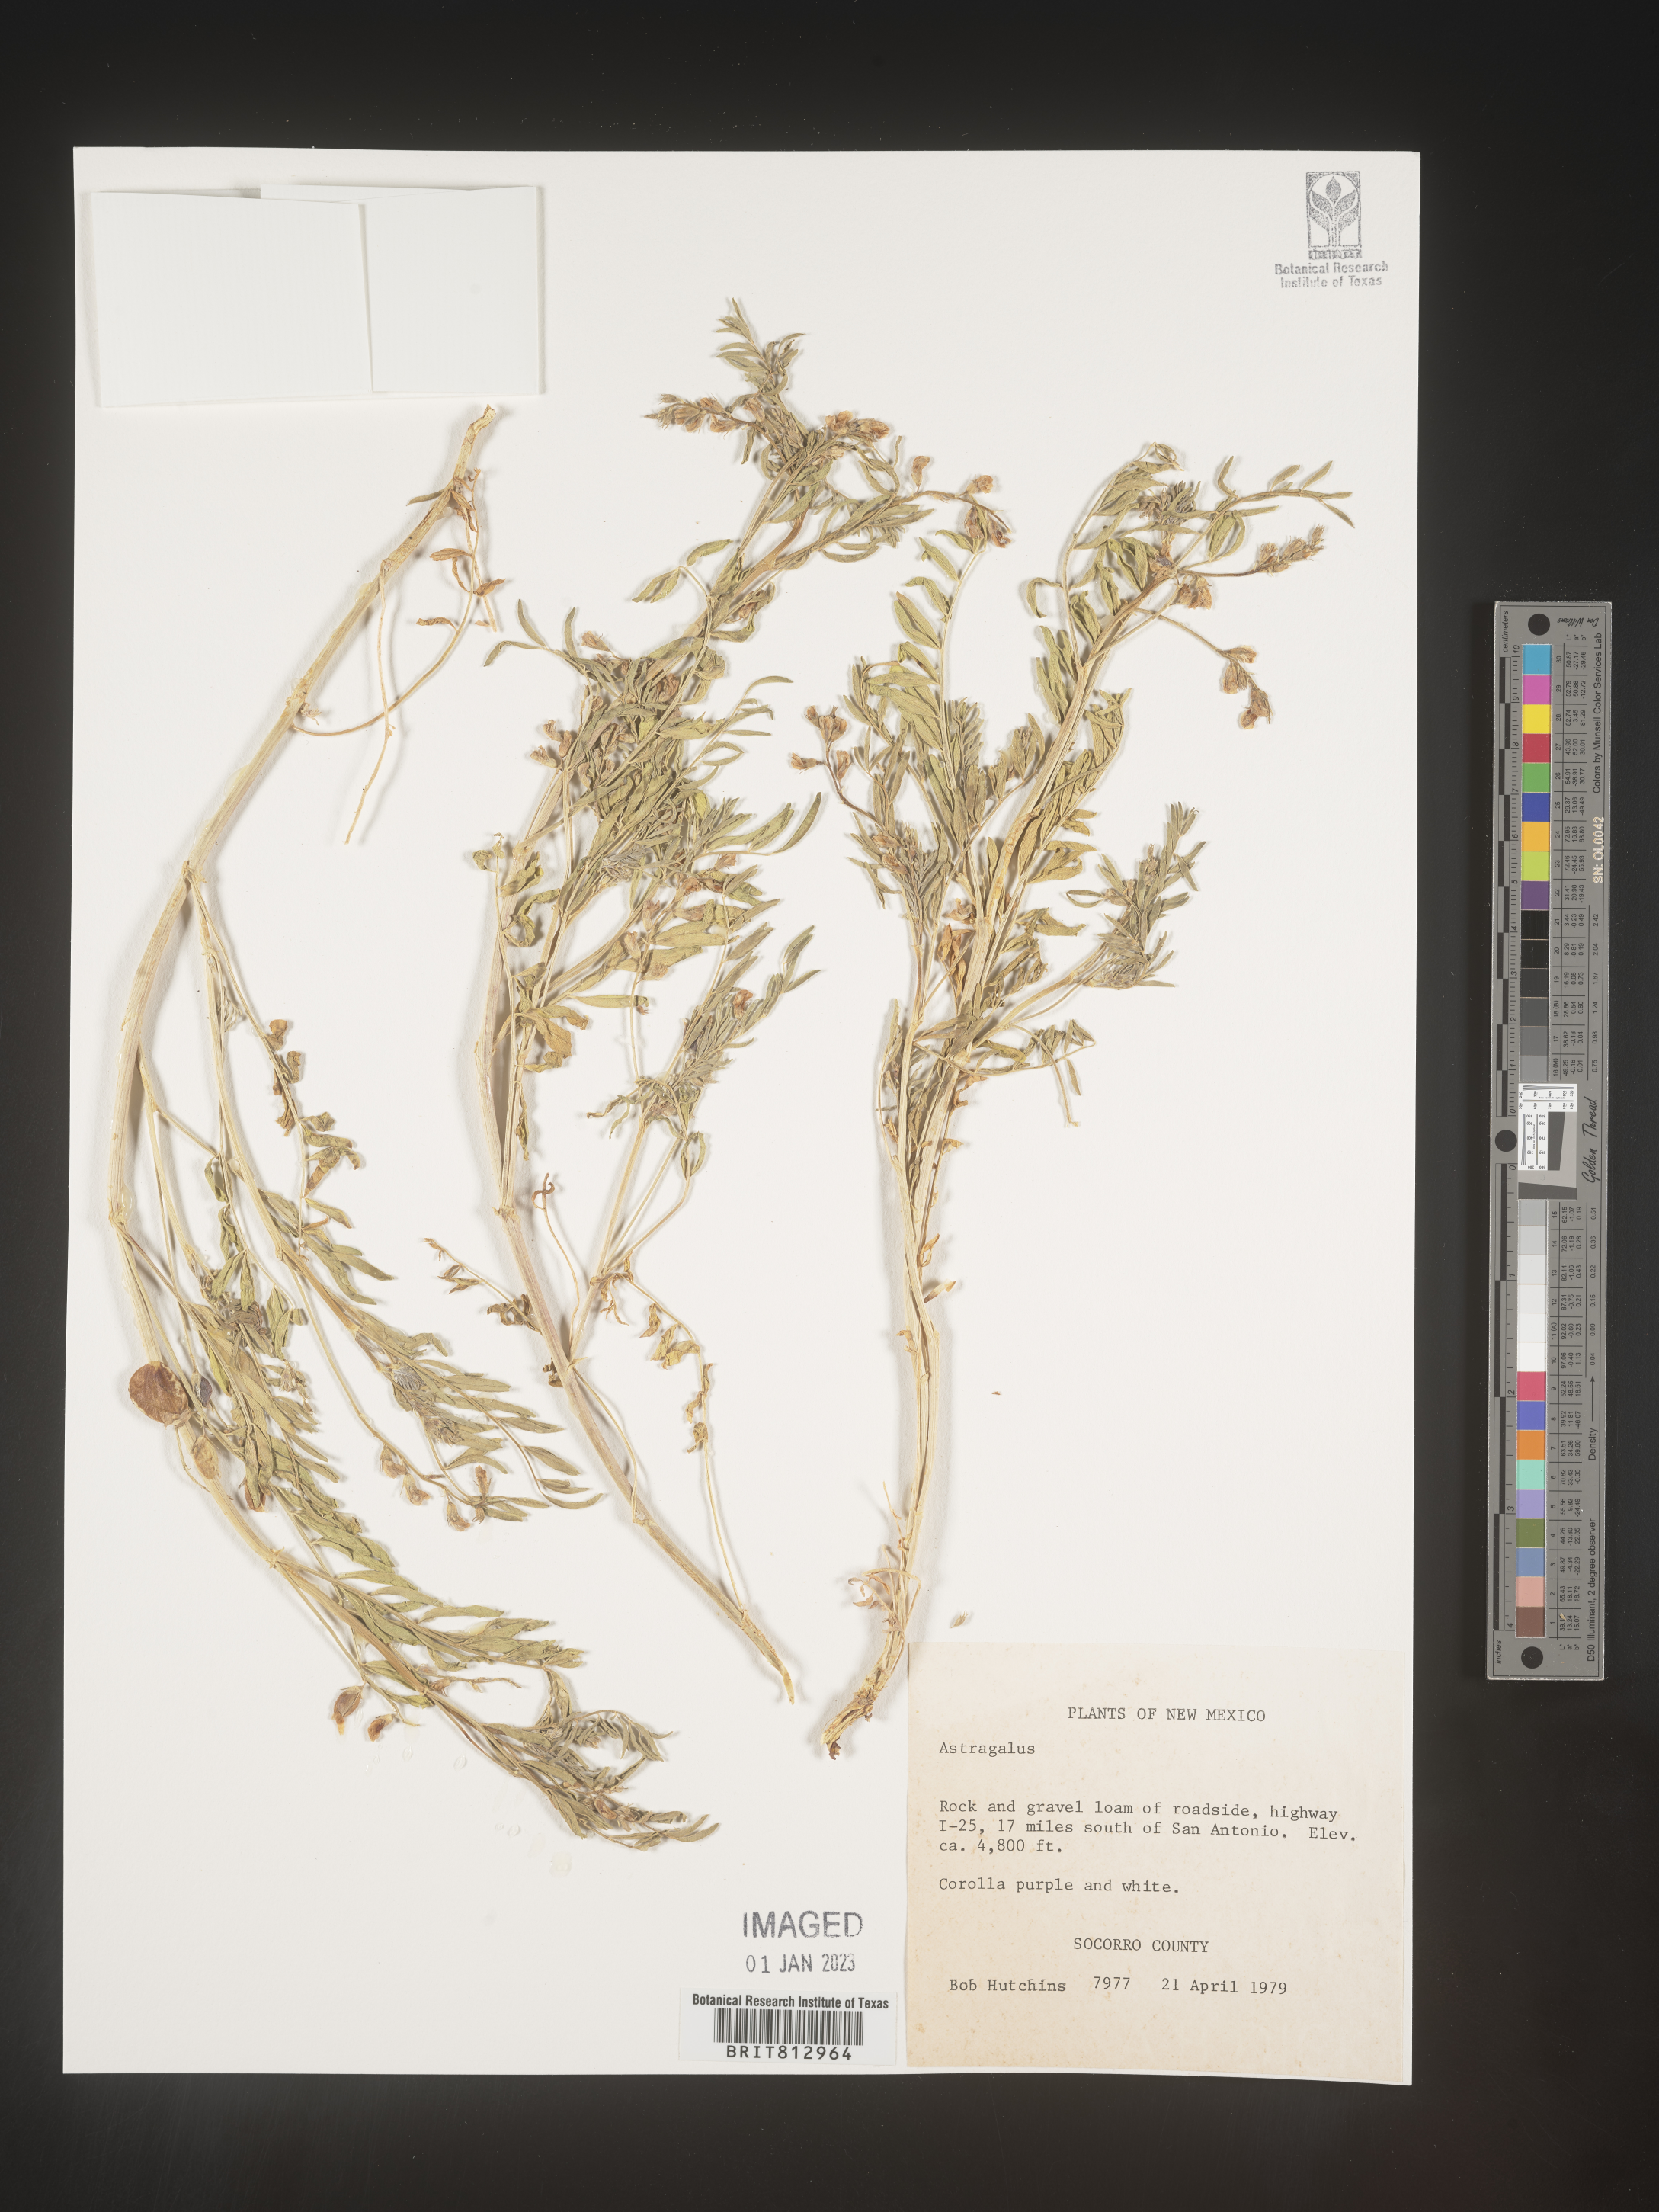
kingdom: Plantae
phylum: Tracheophyta
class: Magnoliopsida
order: Fabales
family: Fabaceae
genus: Astragalus
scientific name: Astragalus
